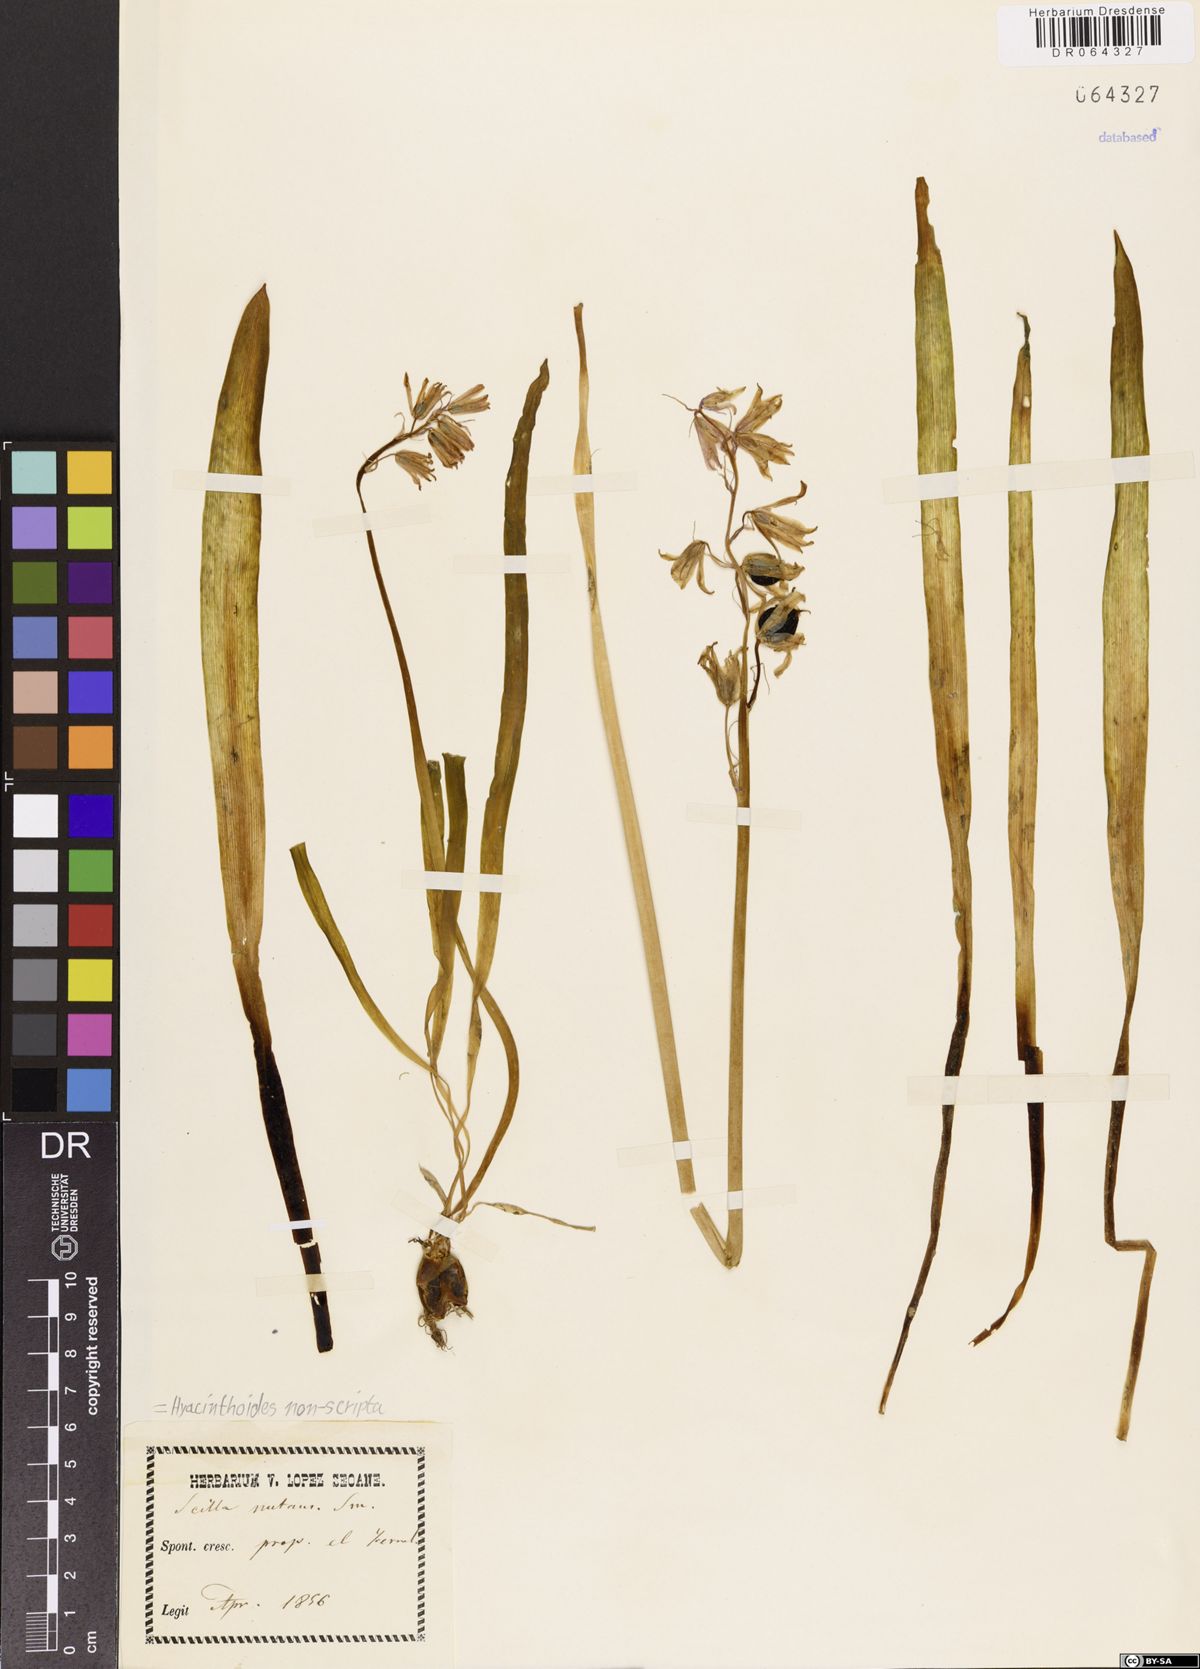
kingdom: Plantae
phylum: Tracheophyta
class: Liliopsida
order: Asparagales
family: Asparagaceae
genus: Hyacinthoides
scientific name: Hyacinthoides non-scripta
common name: Bluebell
